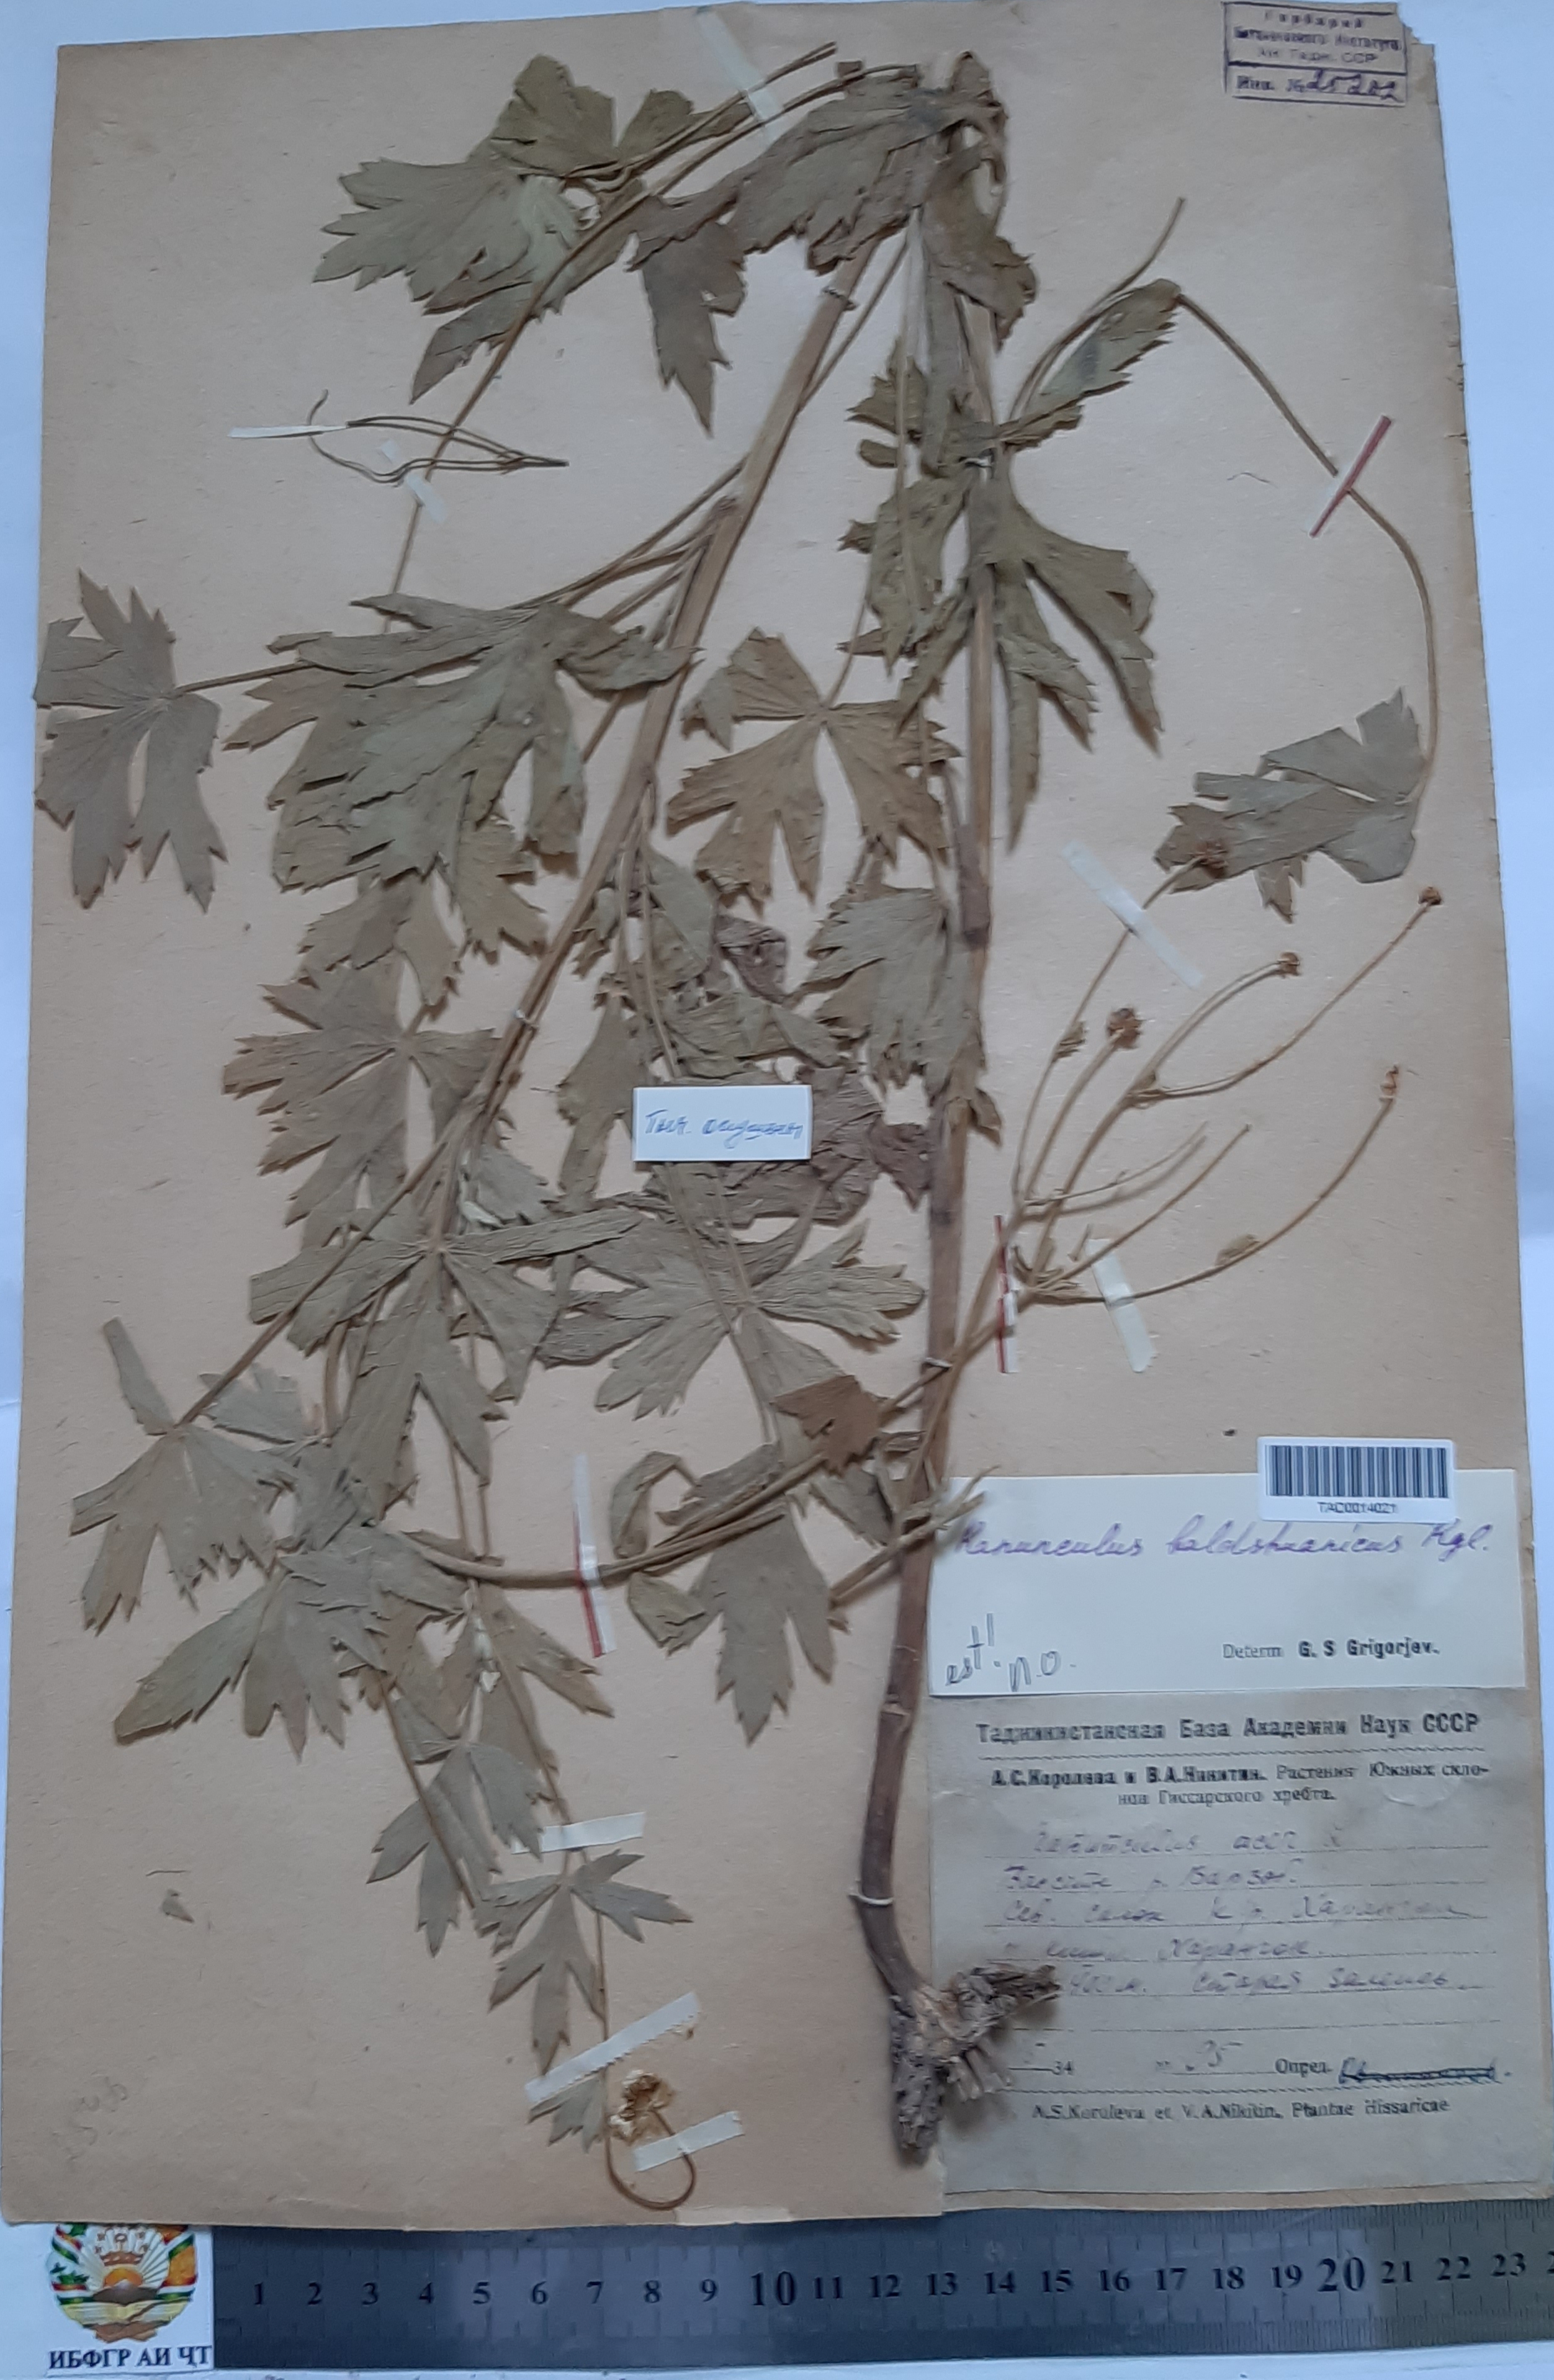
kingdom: Plantae
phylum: Tracheophyta
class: Magnoliopsida
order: Ranunculales
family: Ranunculaceae
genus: Ranunculus
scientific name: Ranunculus baldshuanicus
